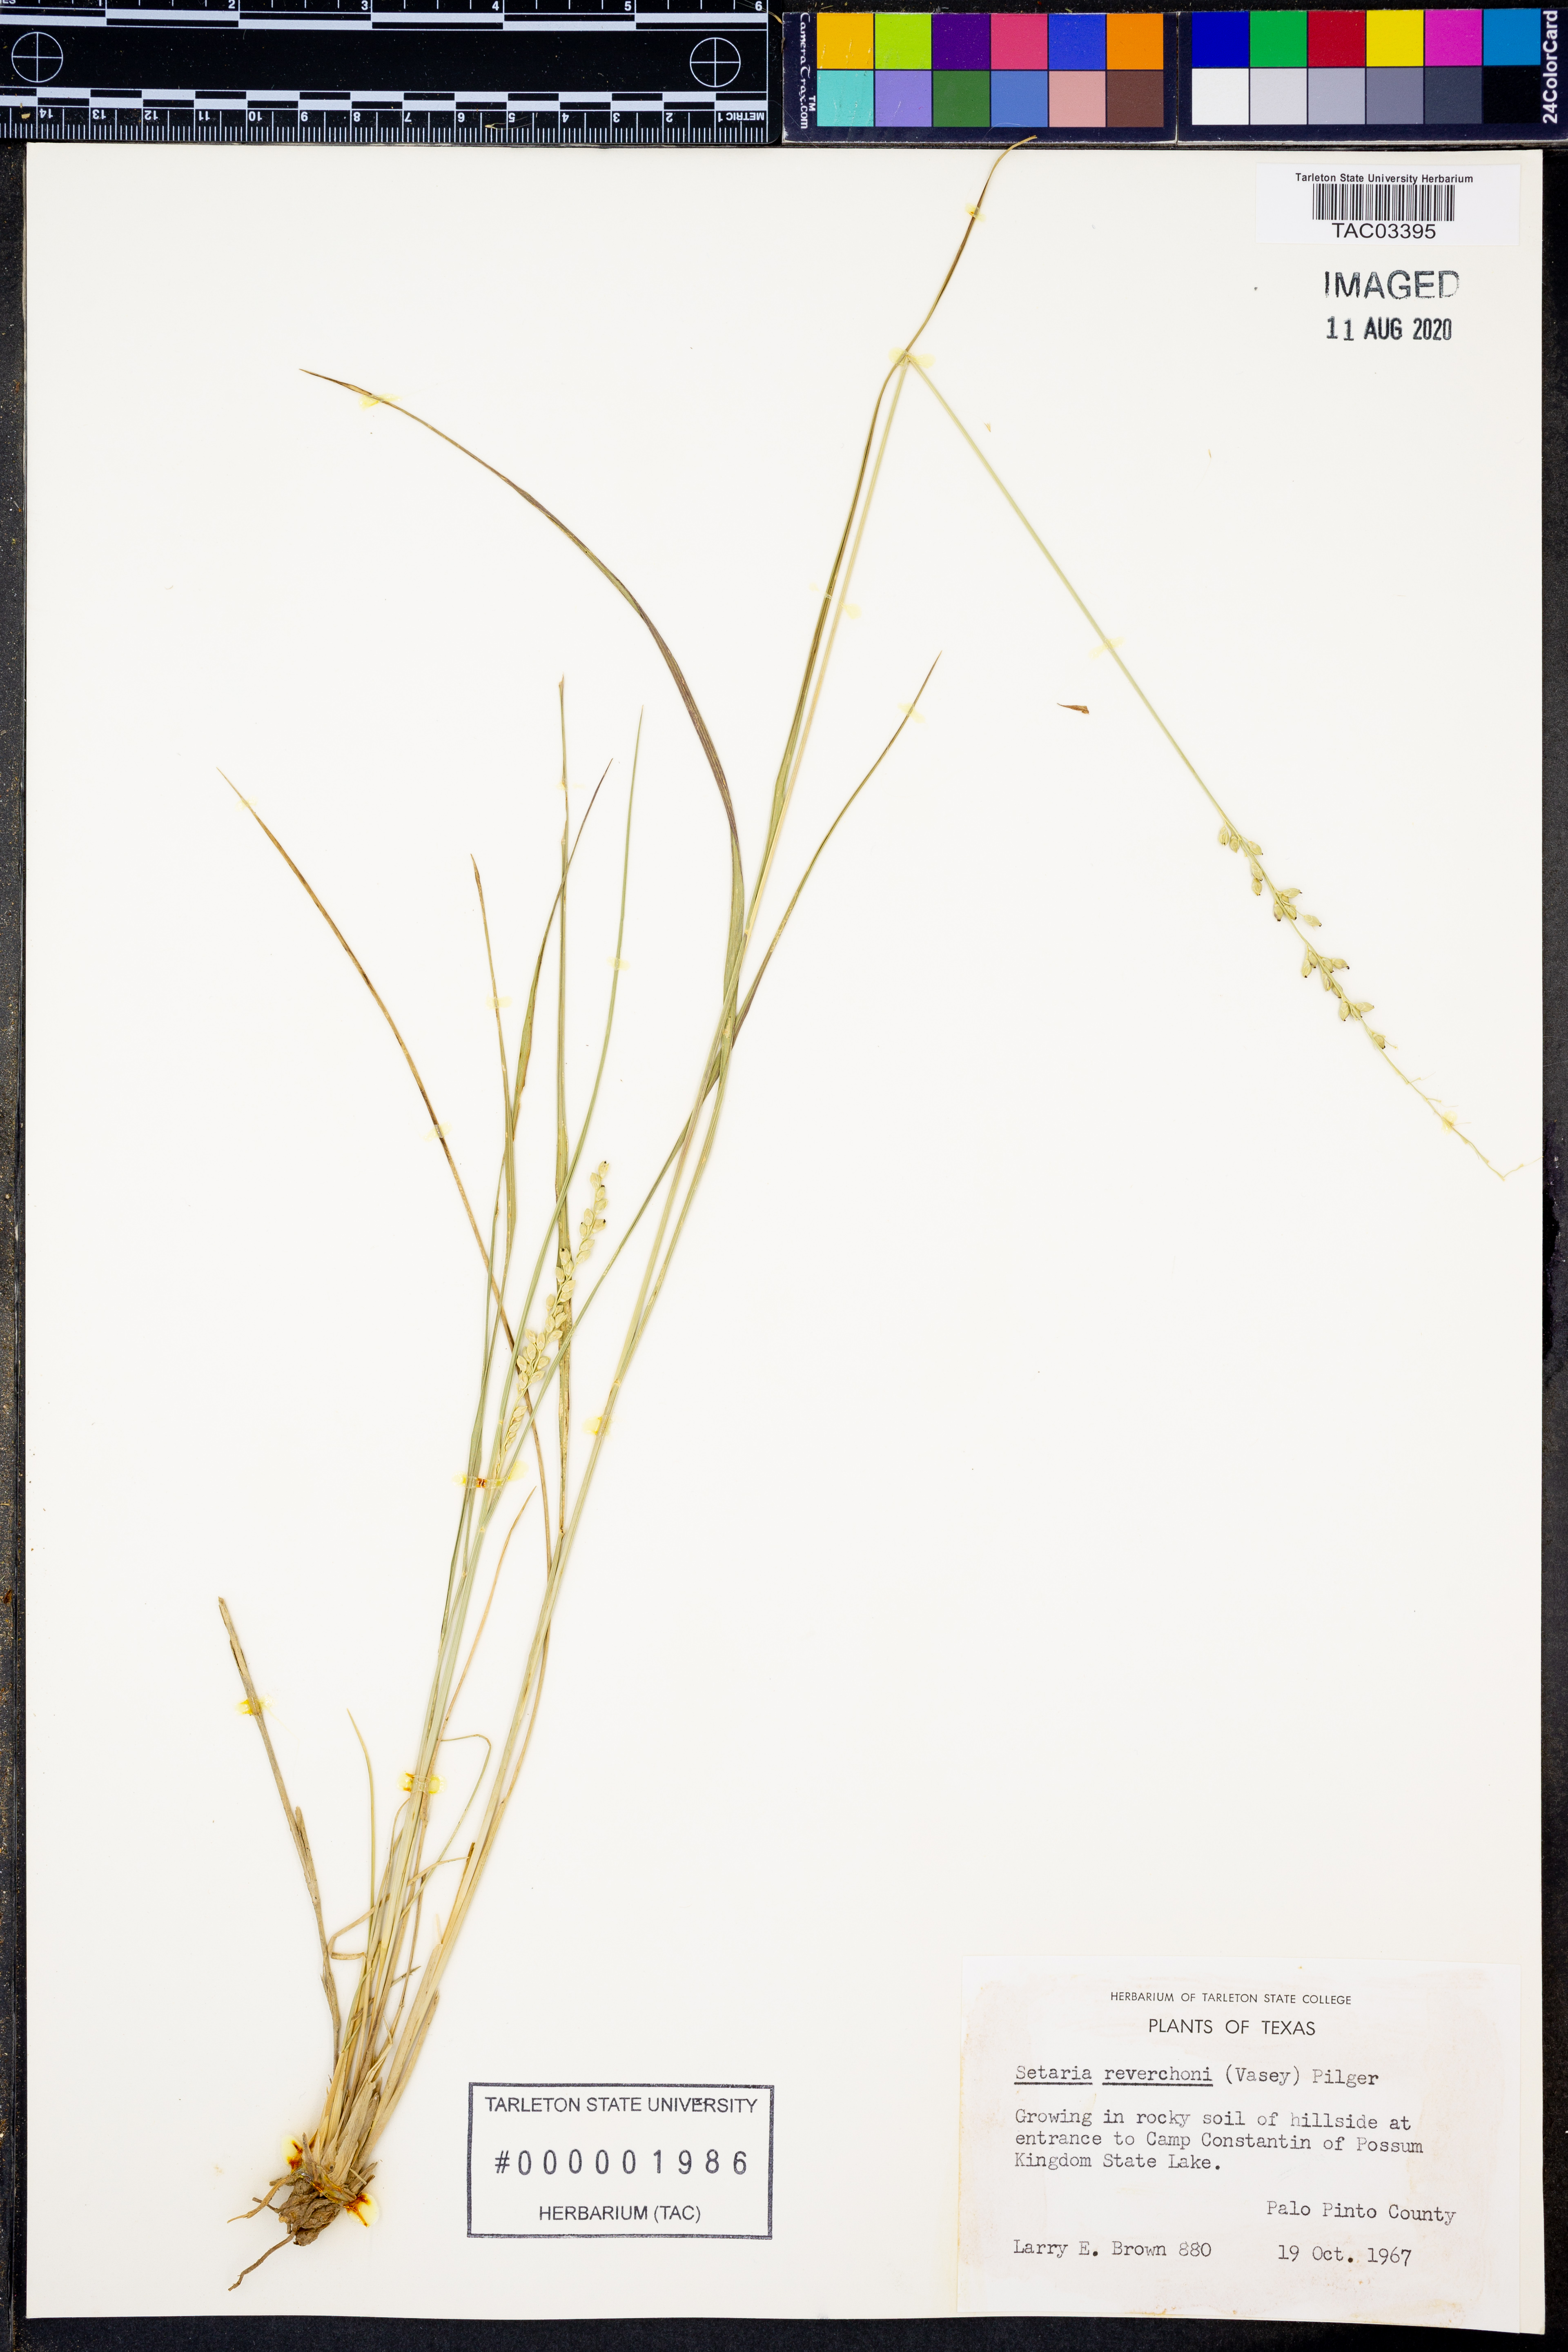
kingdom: Plantae
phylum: Tracheophyta
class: Liliopsida
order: Poales
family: Poaceae
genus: Setaria
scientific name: Setaria reverchonii
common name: Reverchon's bristle grass
